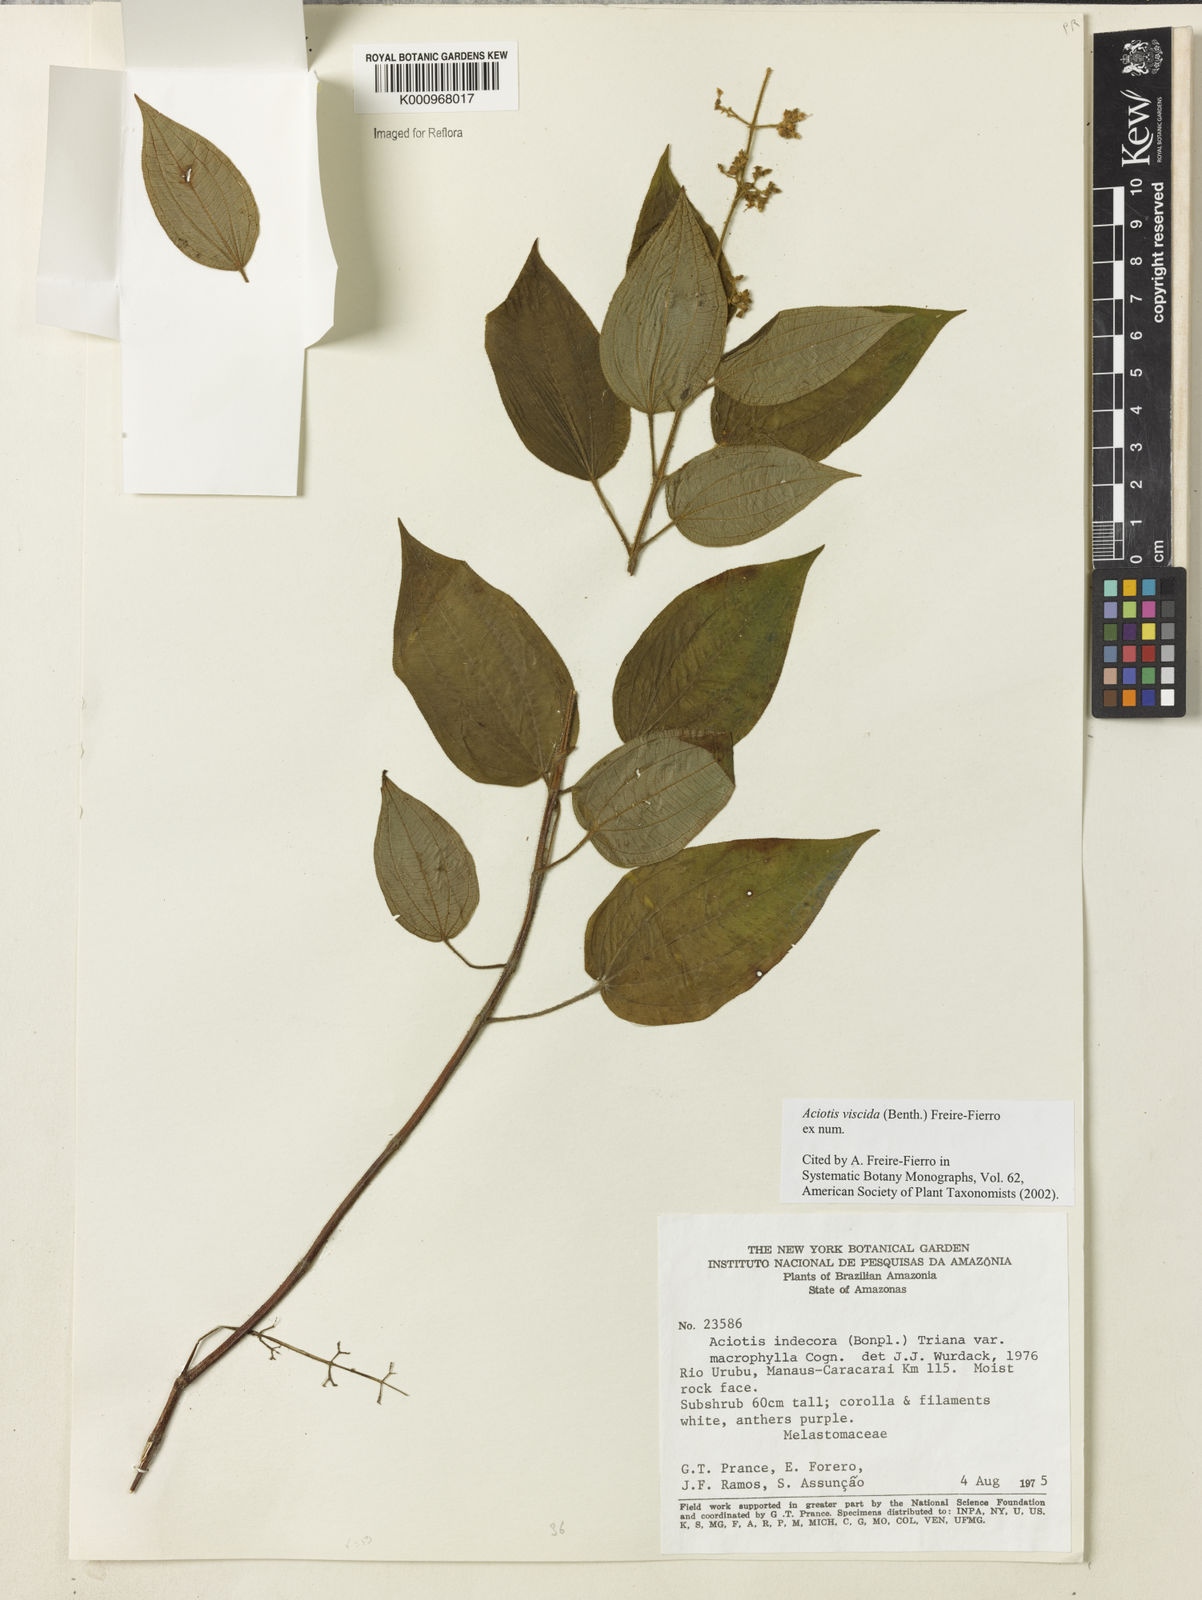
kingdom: Plantae
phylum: Tracheophyta
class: Magnoliopsida
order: Myrtales
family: Melastomataceae
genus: Aciotis
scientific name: Aciotis viscida
